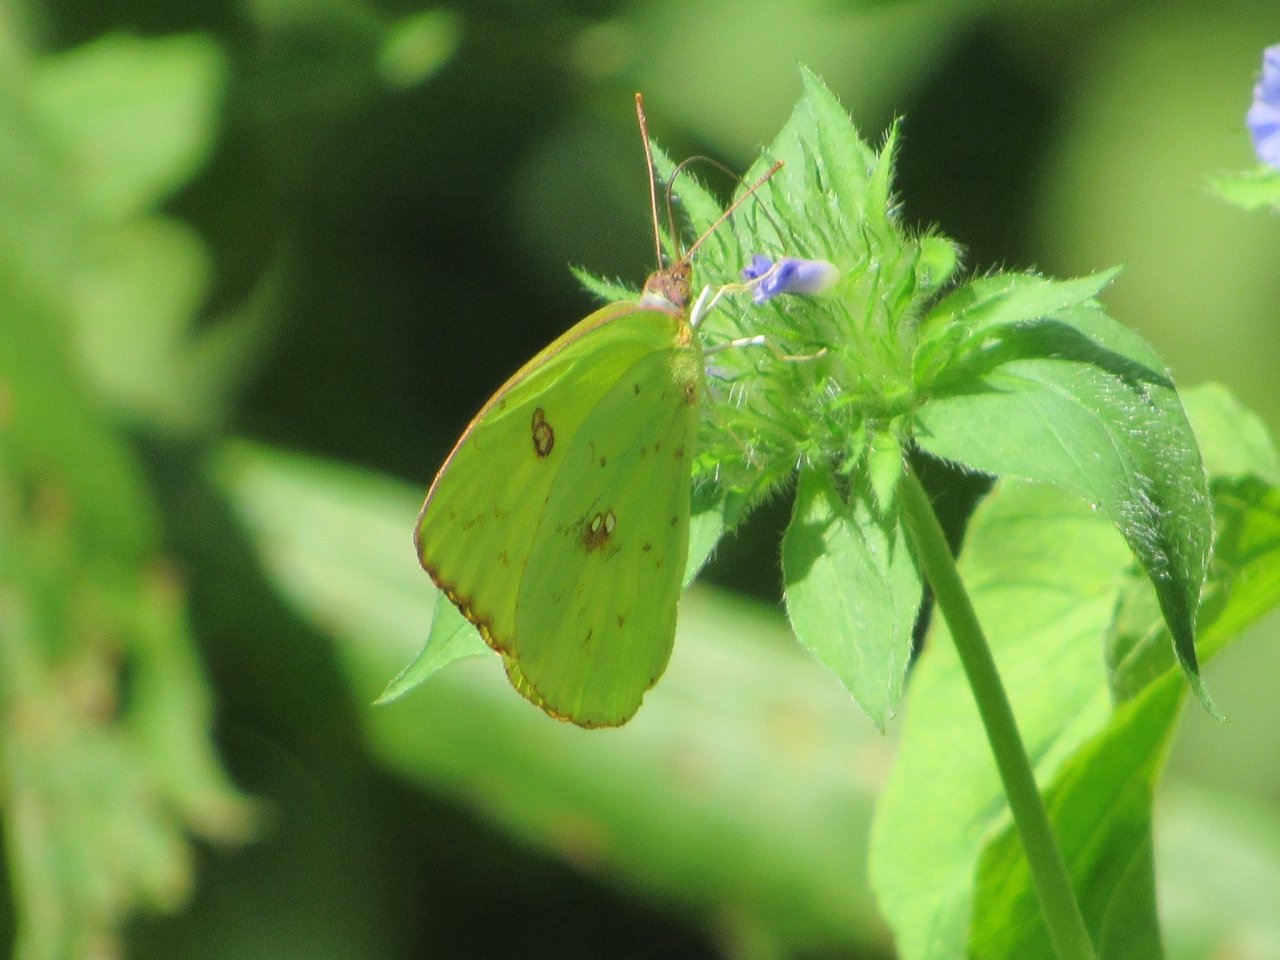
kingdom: Animalia
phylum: Arthropoda
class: Insecta
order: Lepidoptera
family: Pieridae
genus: Phoebis
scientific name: Phoebis sennae
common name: Cloudless Sulphur
